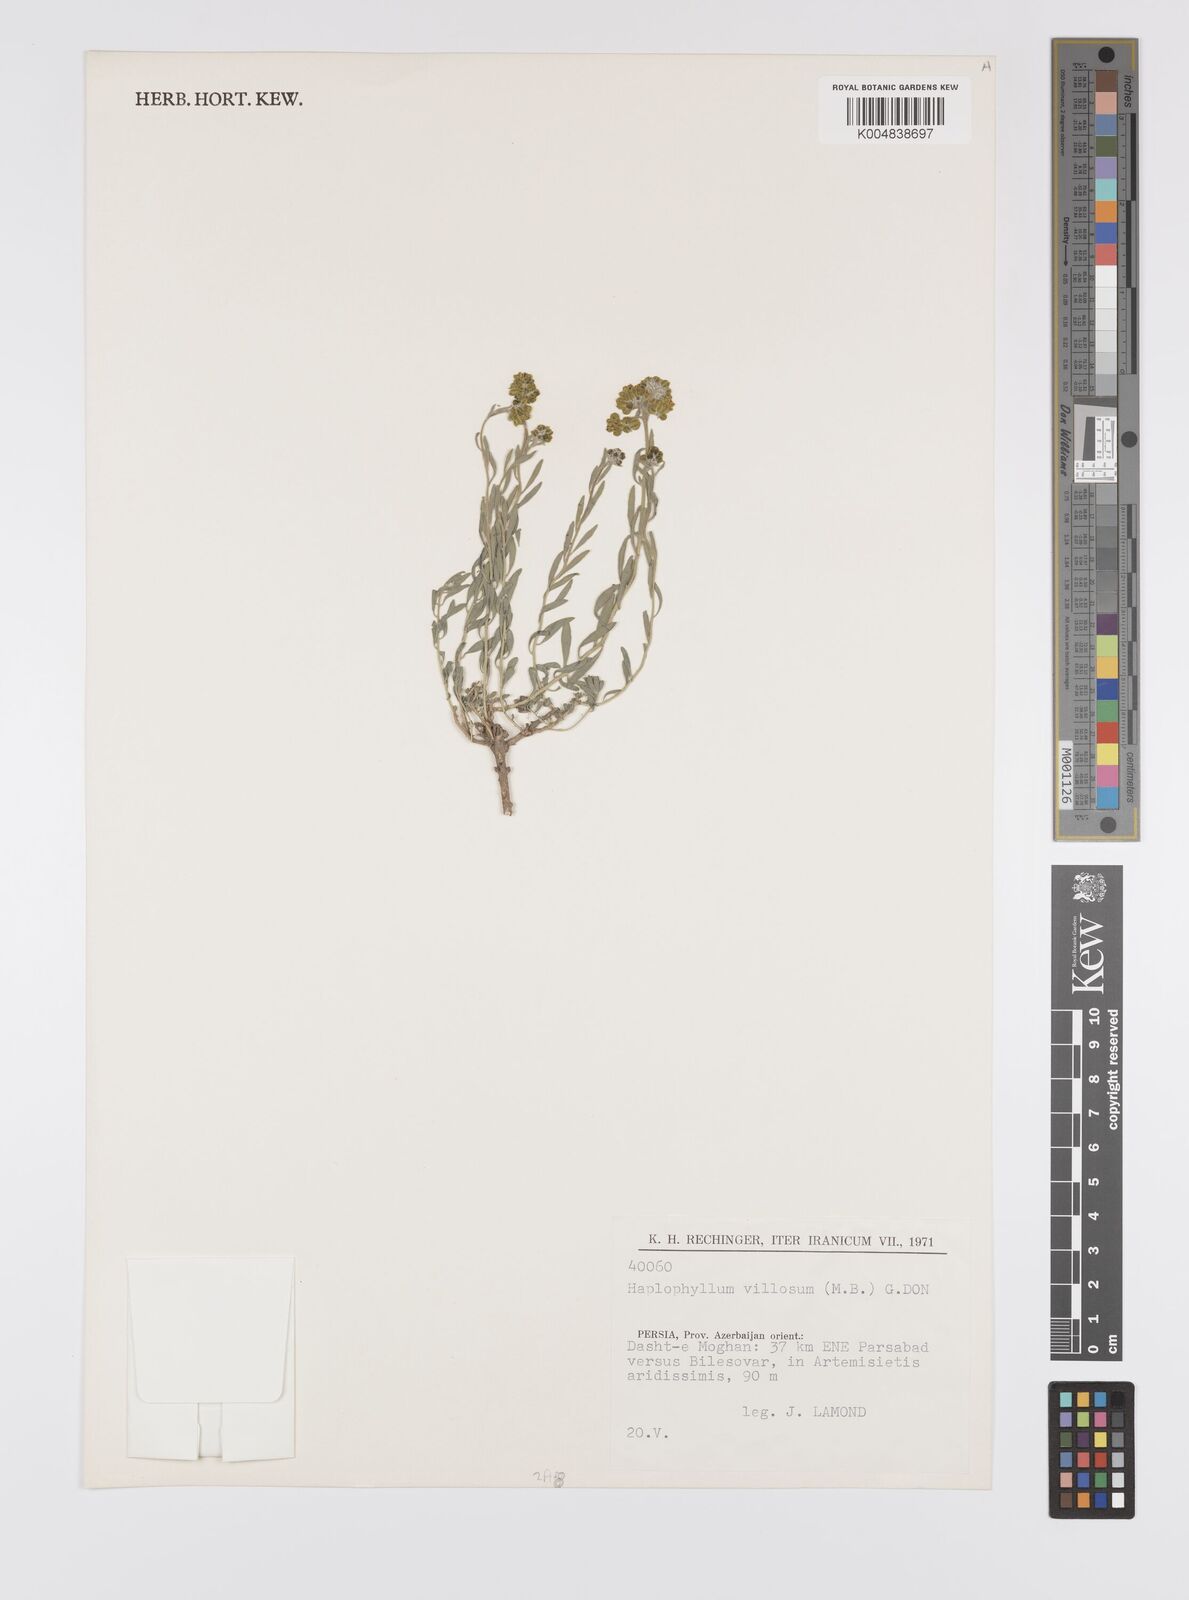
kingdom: Plantae
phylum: Tracheophyta
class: Magnoliopsida
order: Sapindales
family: Rutaceae
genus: Haplophyllum
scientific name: Haplophyllum villosum
